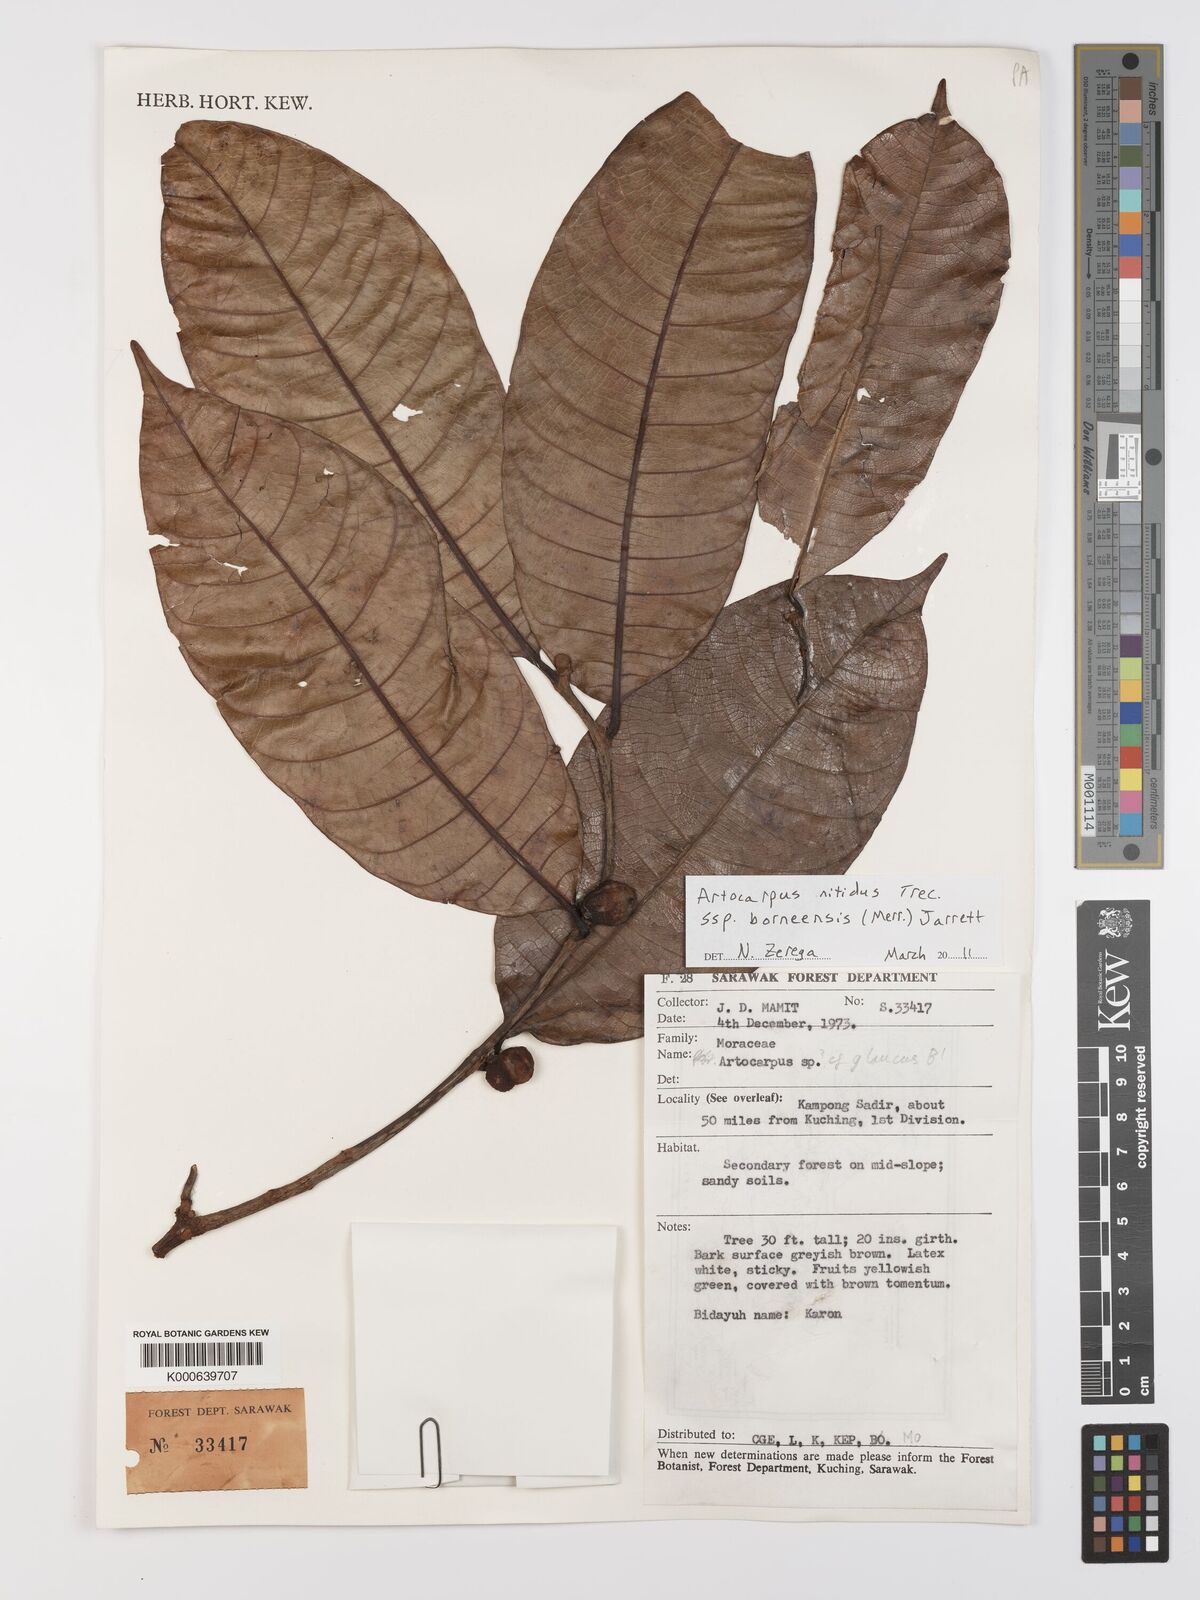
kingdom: Plantae
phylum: Tracheophyta
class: Magnoliopsida
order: Rosales
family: Moraceae
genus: Artocarpus
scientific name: Artocarpus lamellosus
